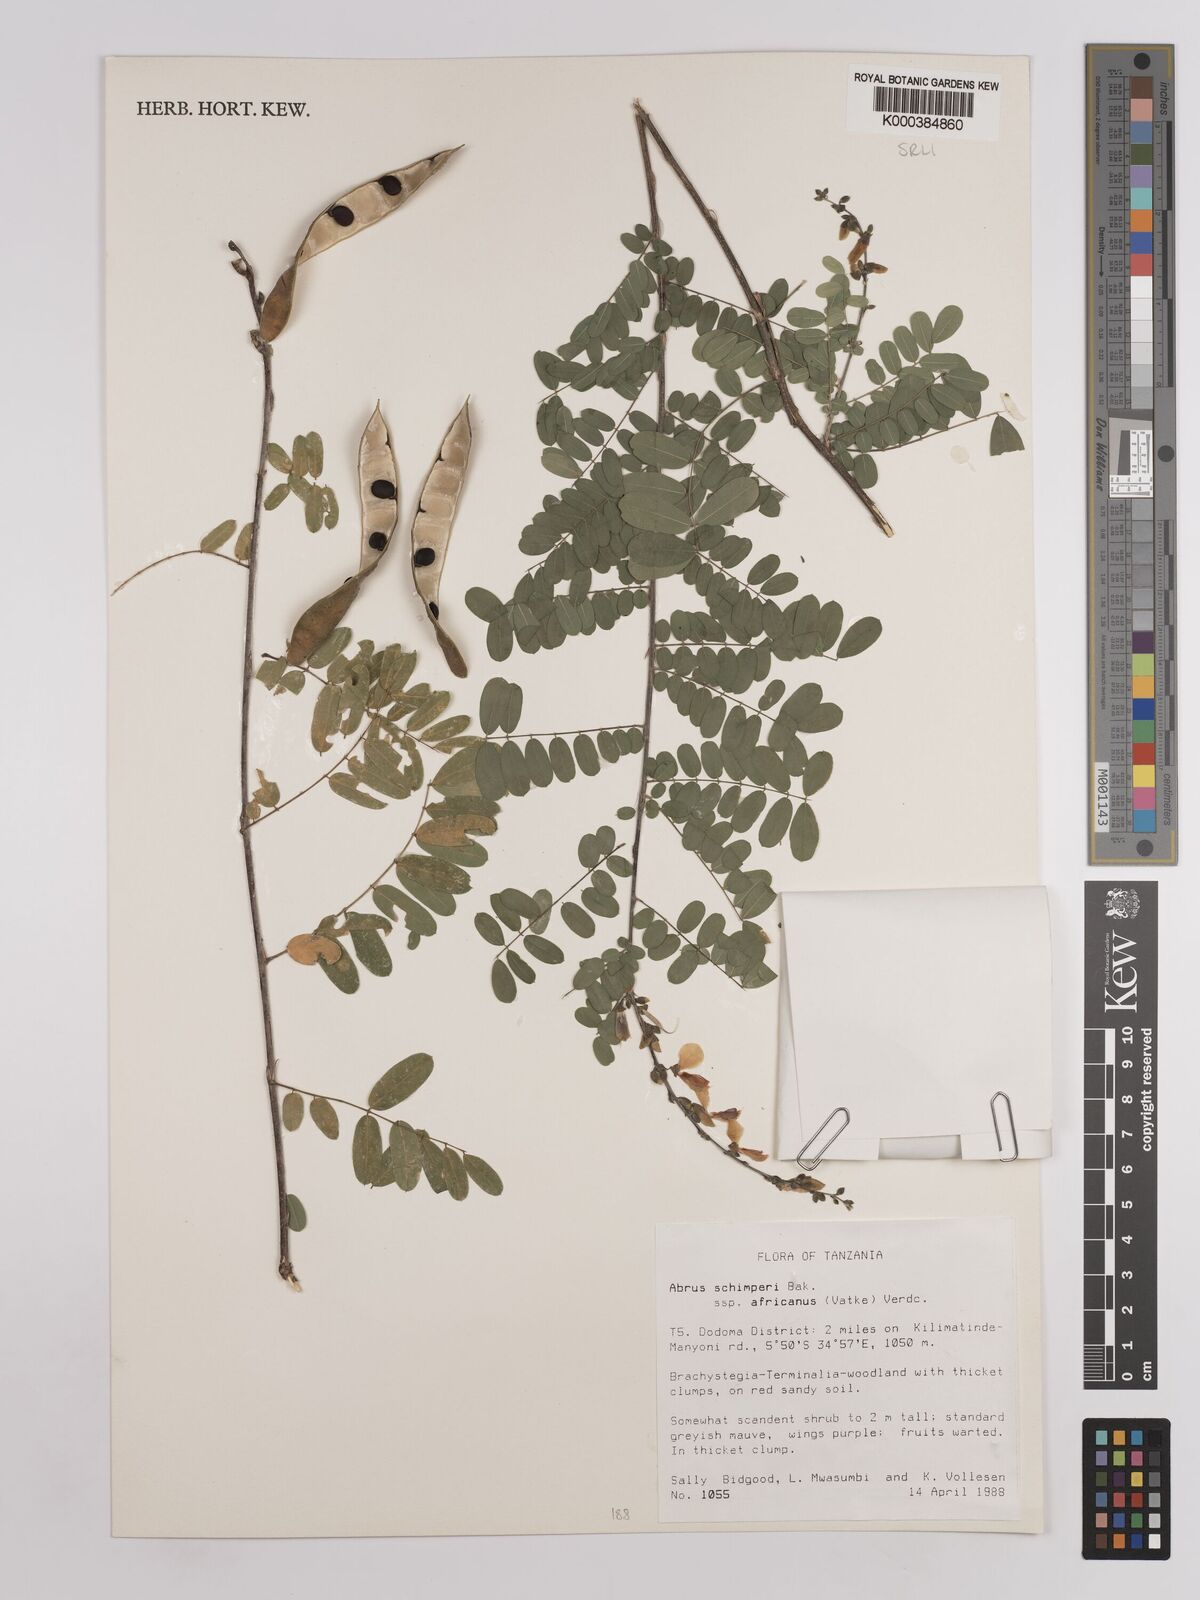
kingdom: Plantae
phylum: Tracheophyta
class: Magnoliopsida
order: Fabales
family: Fabaceae
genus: Abrus
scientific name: Abrus fruticulosus
